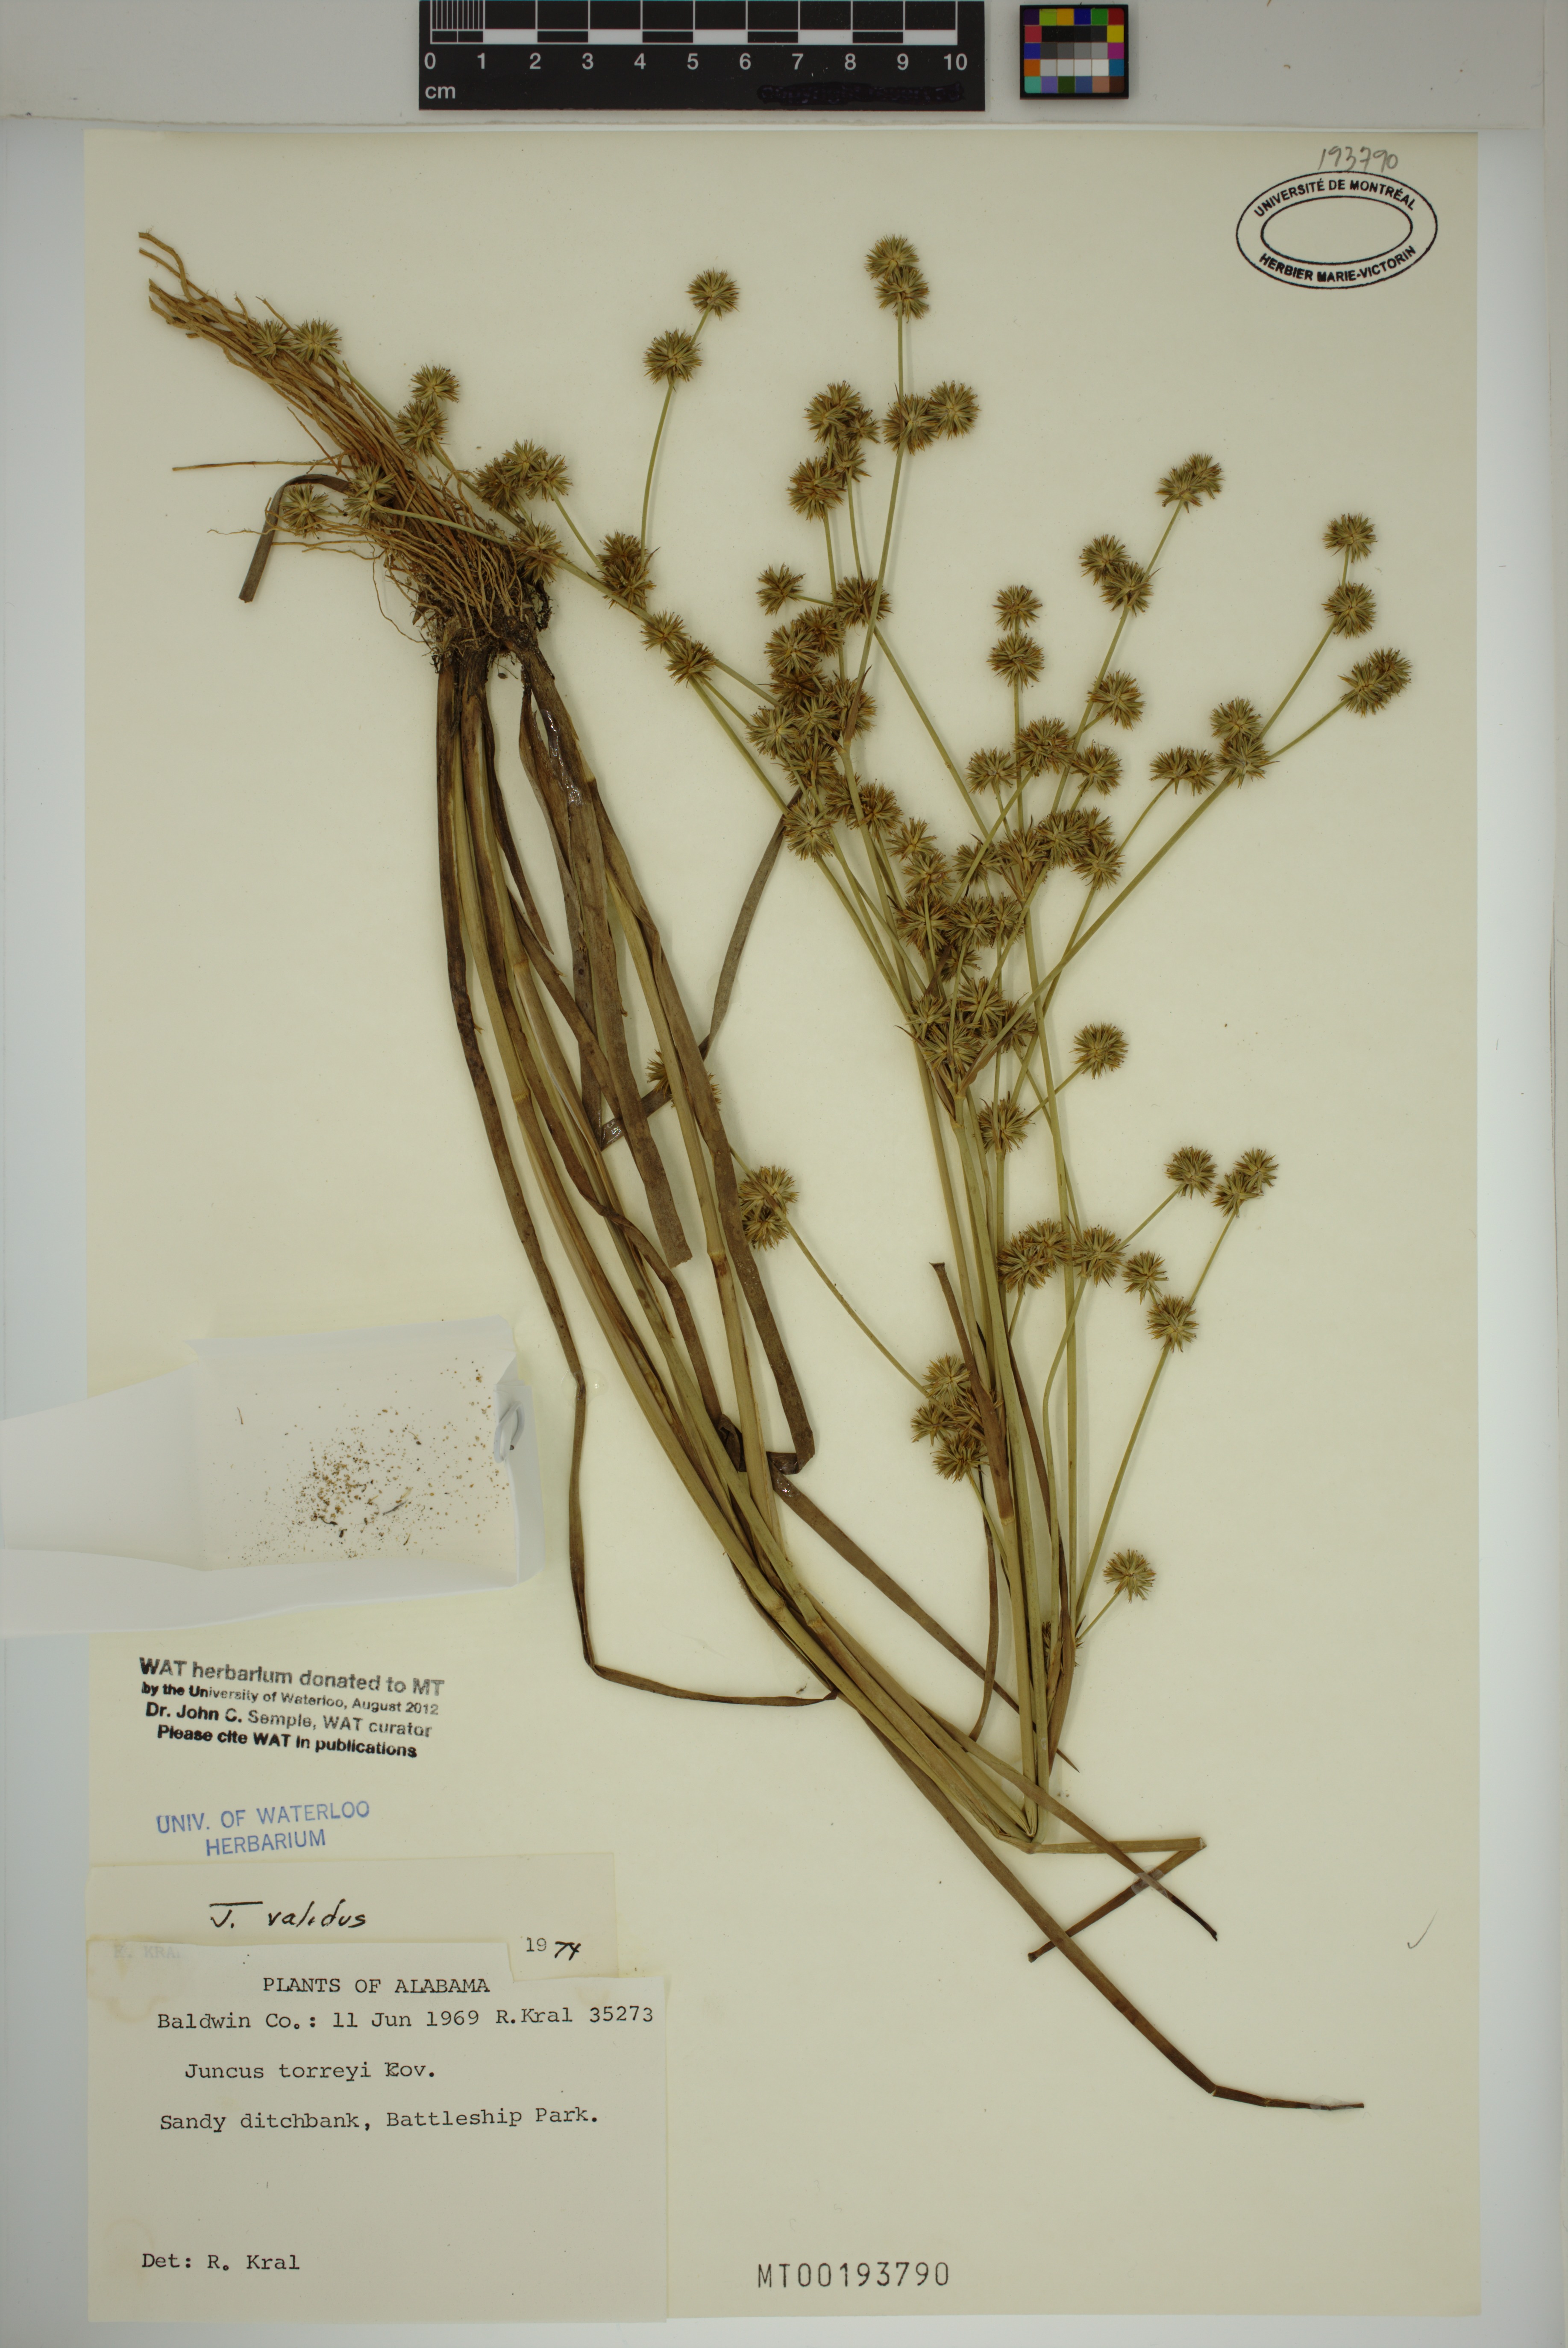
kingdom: Plantae
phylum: Tracheophyta
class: Liliopsida
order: Poales
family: Juncaceae
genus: Juncus
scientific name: Juncus validus
